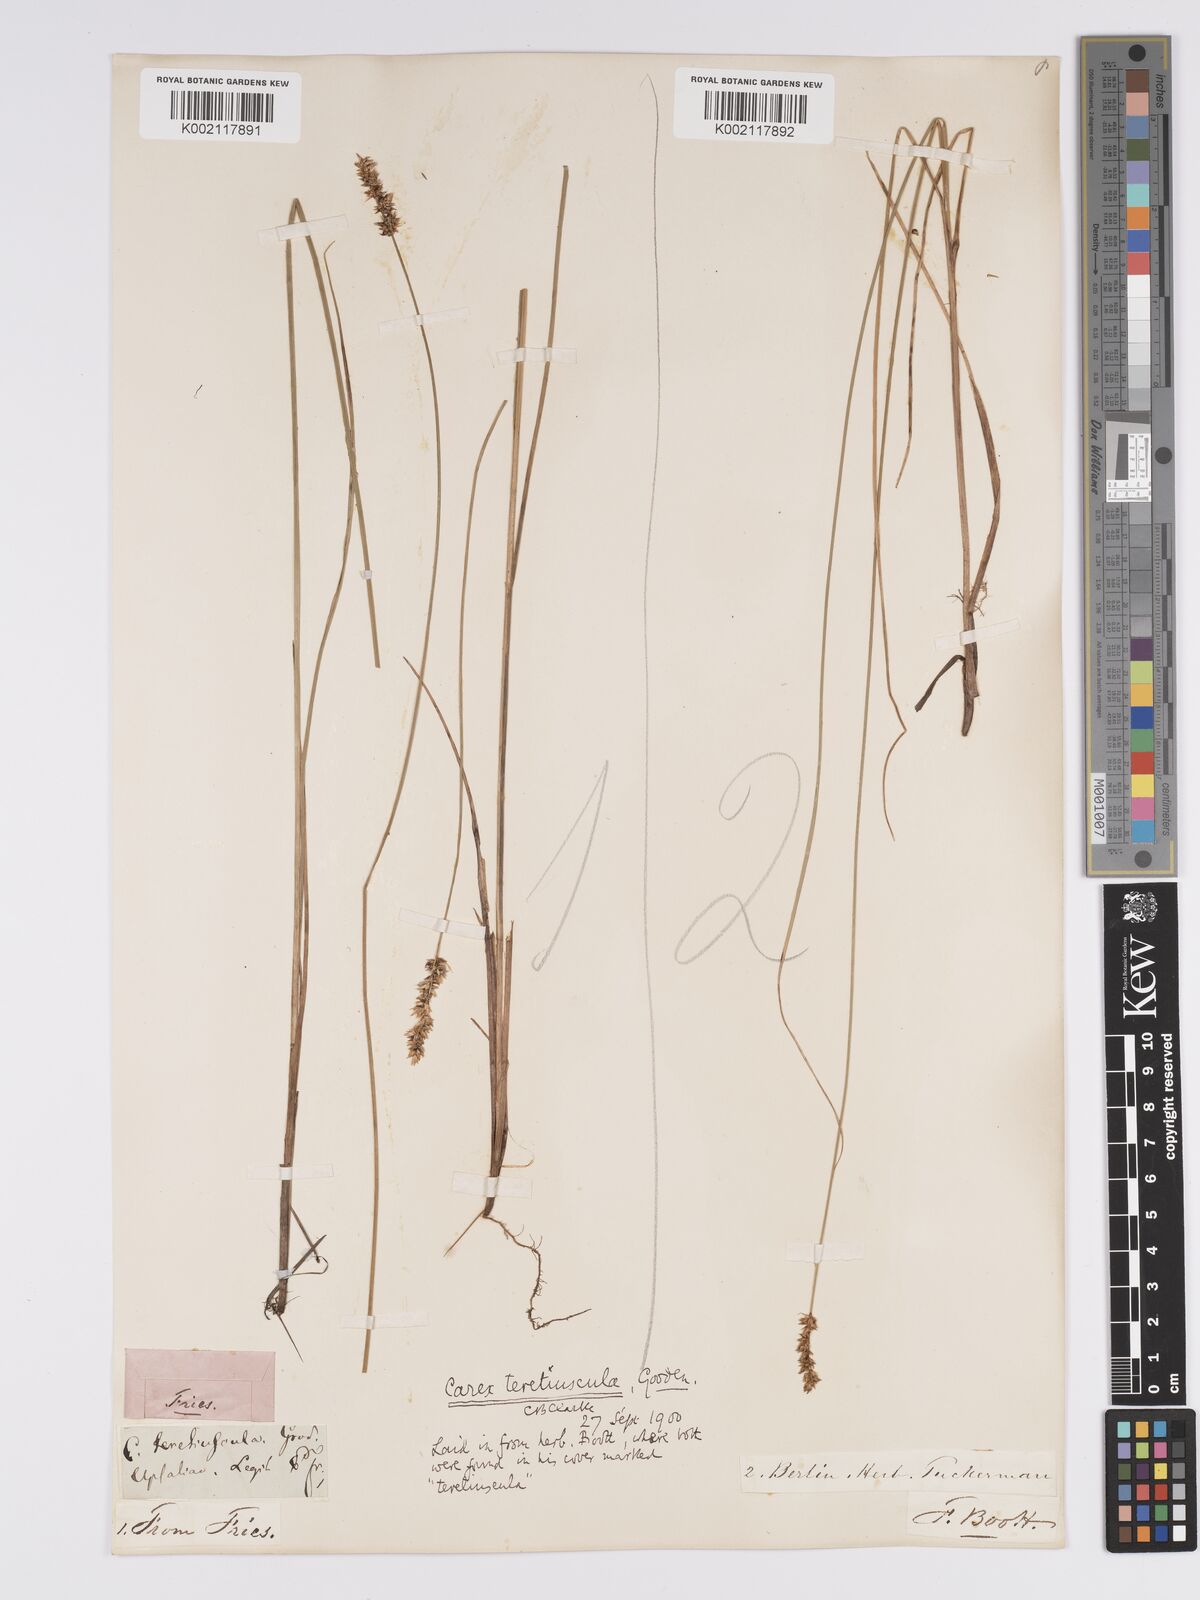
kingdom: Plantae
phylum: Tracheophyta
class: Liliopsida
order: Poales
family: Cyperaceae
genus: Carex
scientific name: Carex diandra
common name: Lesser tussock-sedge
